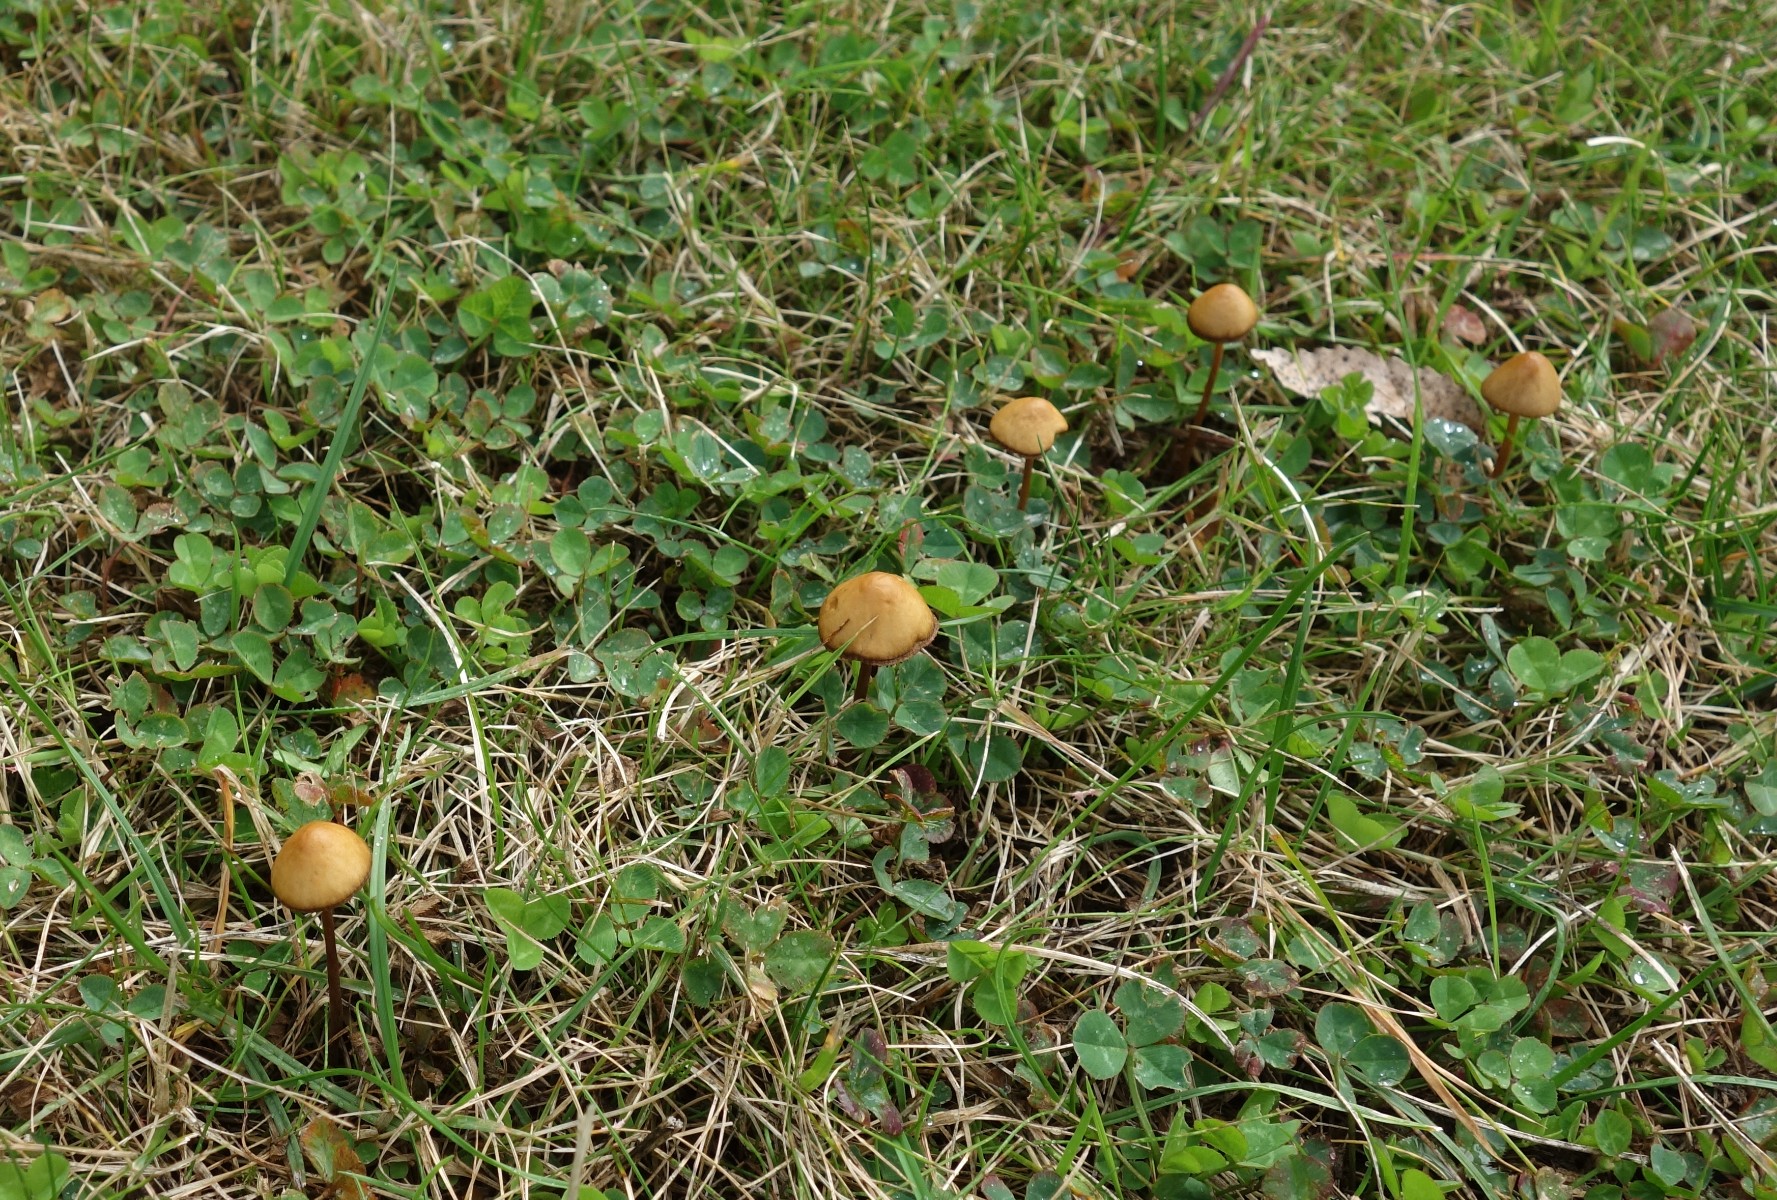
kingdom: Fungi
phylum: Basidiomycota
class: Agaricomycetes
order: Agaricales
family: Bolbitiaceae
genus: Conocybe
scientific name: Conocybe
